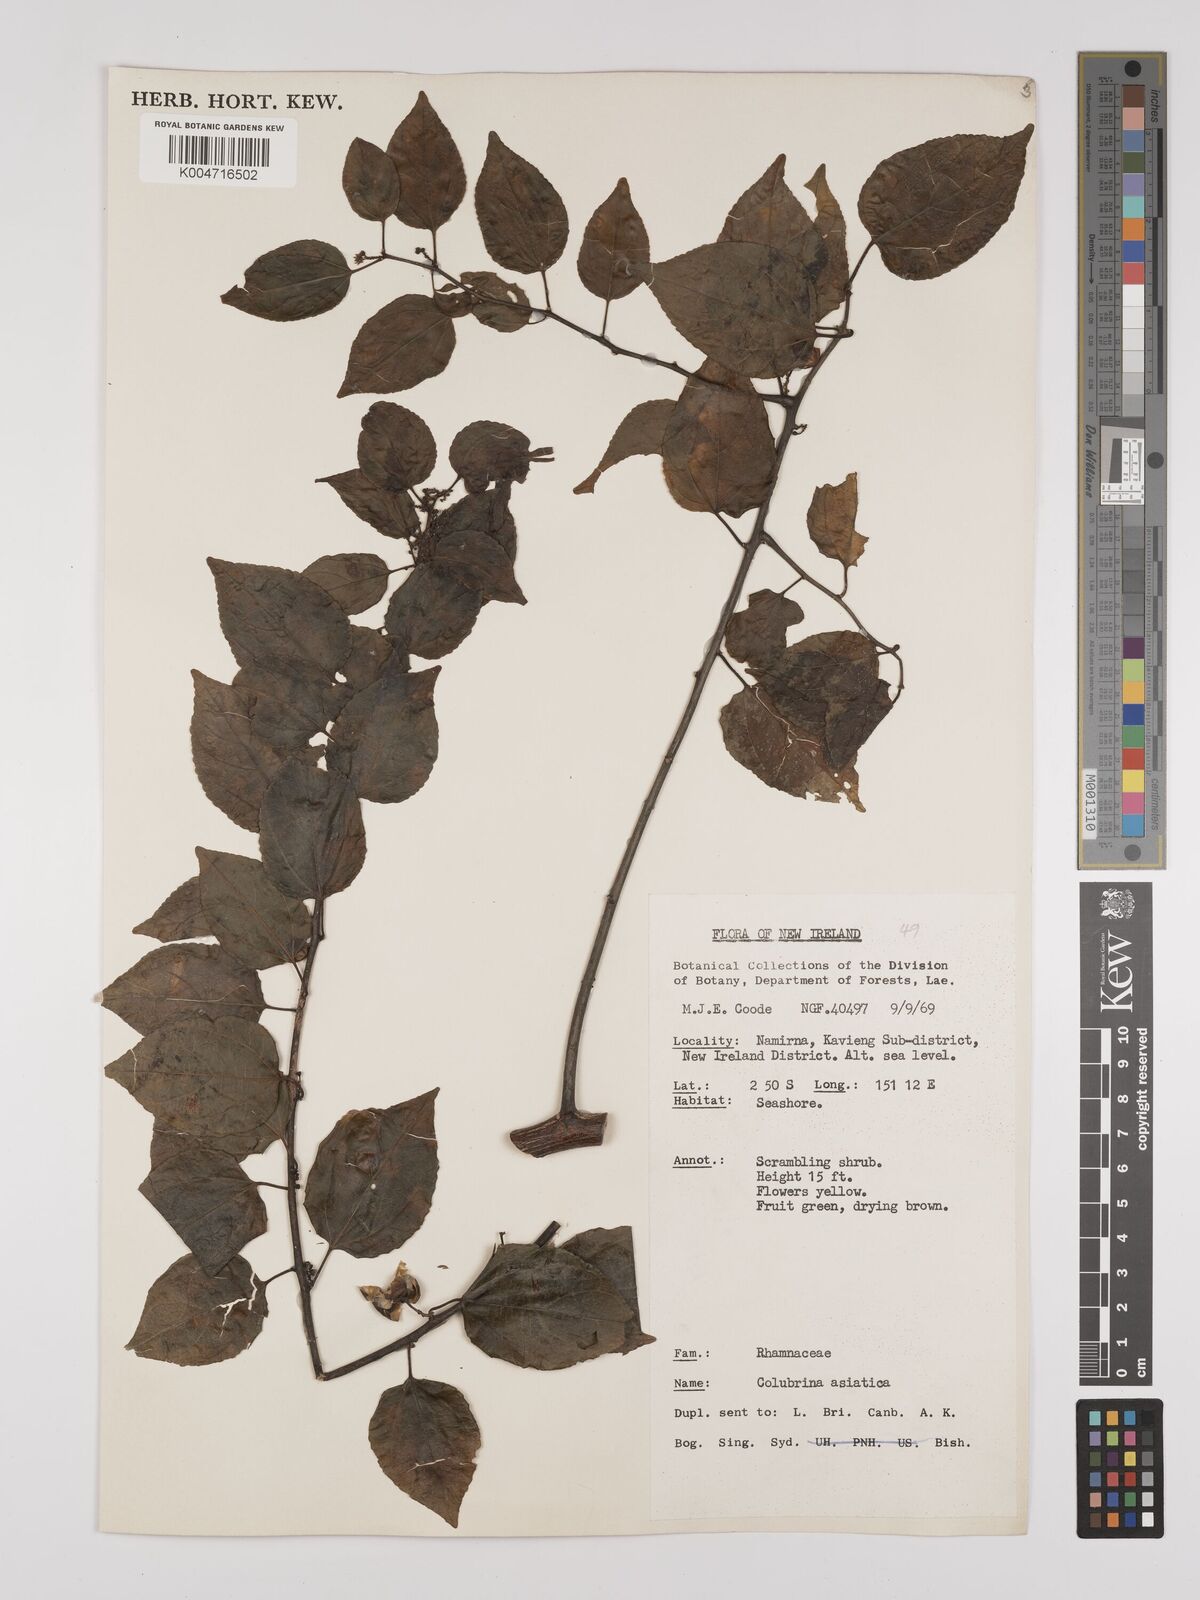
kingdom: Plantae
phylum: Tracheophyta
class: Magnoliopsida
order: Rosales
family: Rhamnaceae
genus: Colubrina
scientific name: Colubrina asiatica
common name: Asian nakedwood
